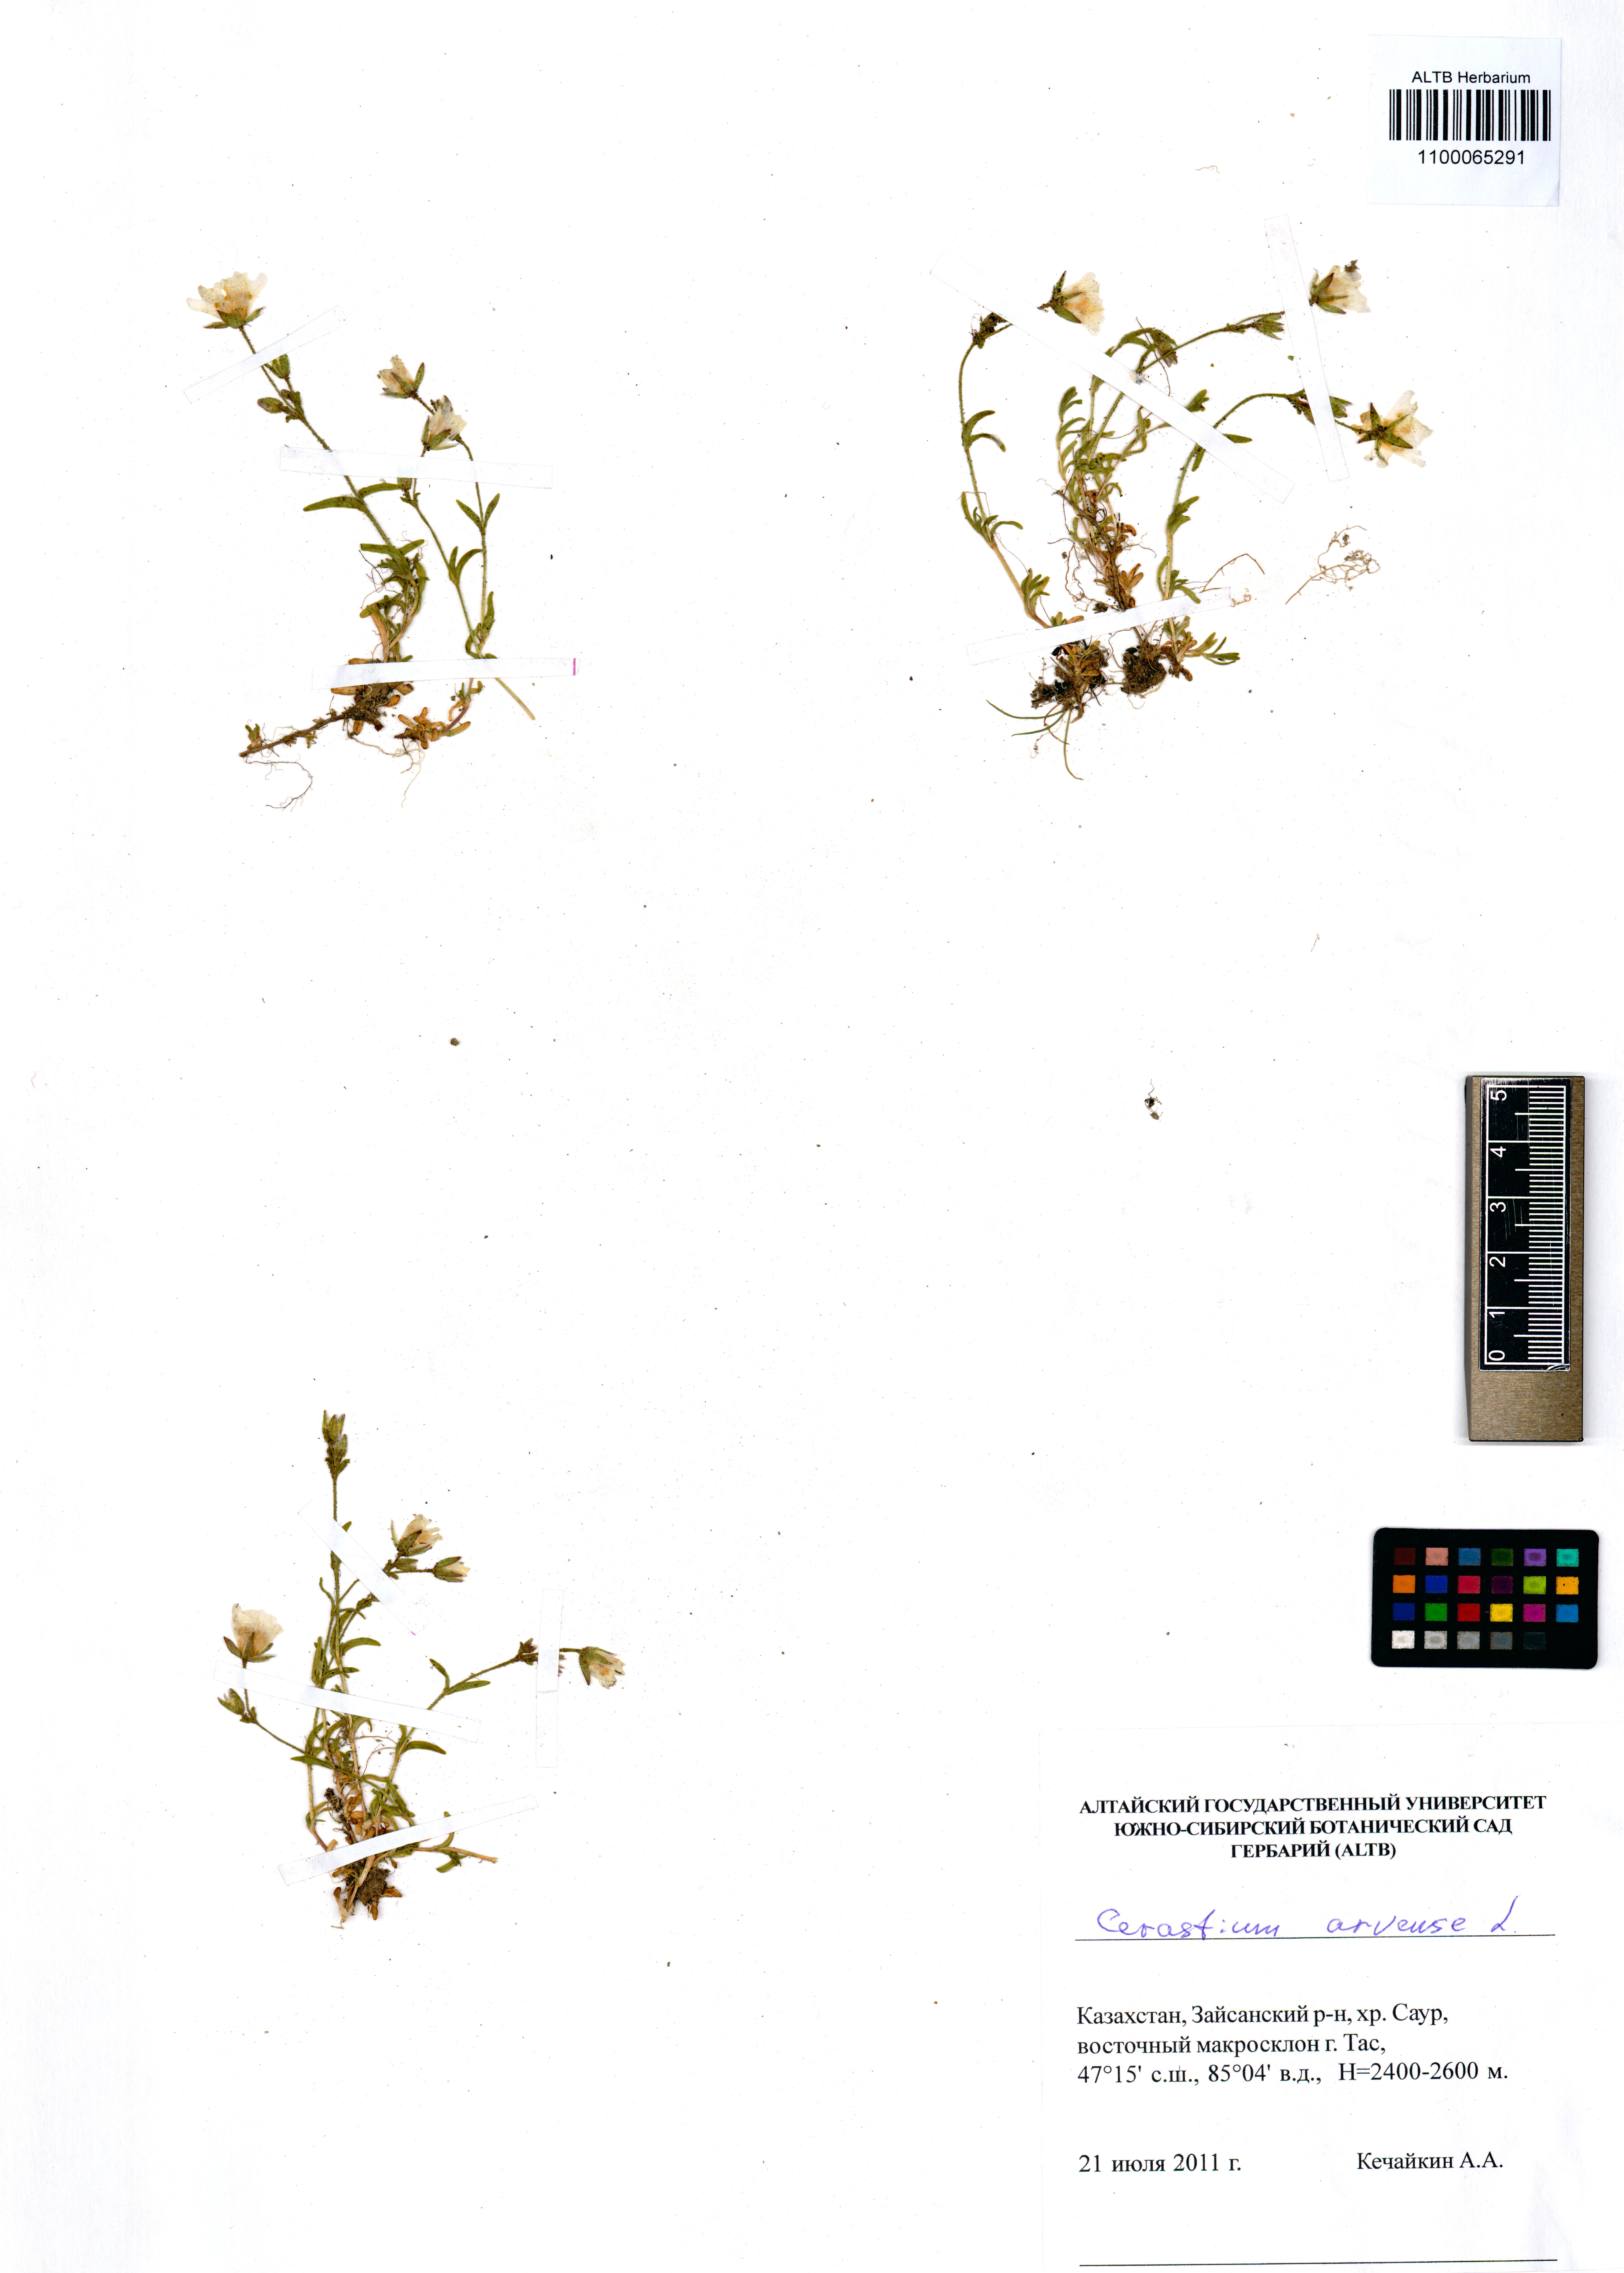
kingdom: Plantae
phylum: Tracheophyta
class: Magnoliopsida
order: Caryophyllales
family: Caryophyllaceae
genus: Cerastium
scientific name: Cerastium arvense
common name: Field mouse-ear
